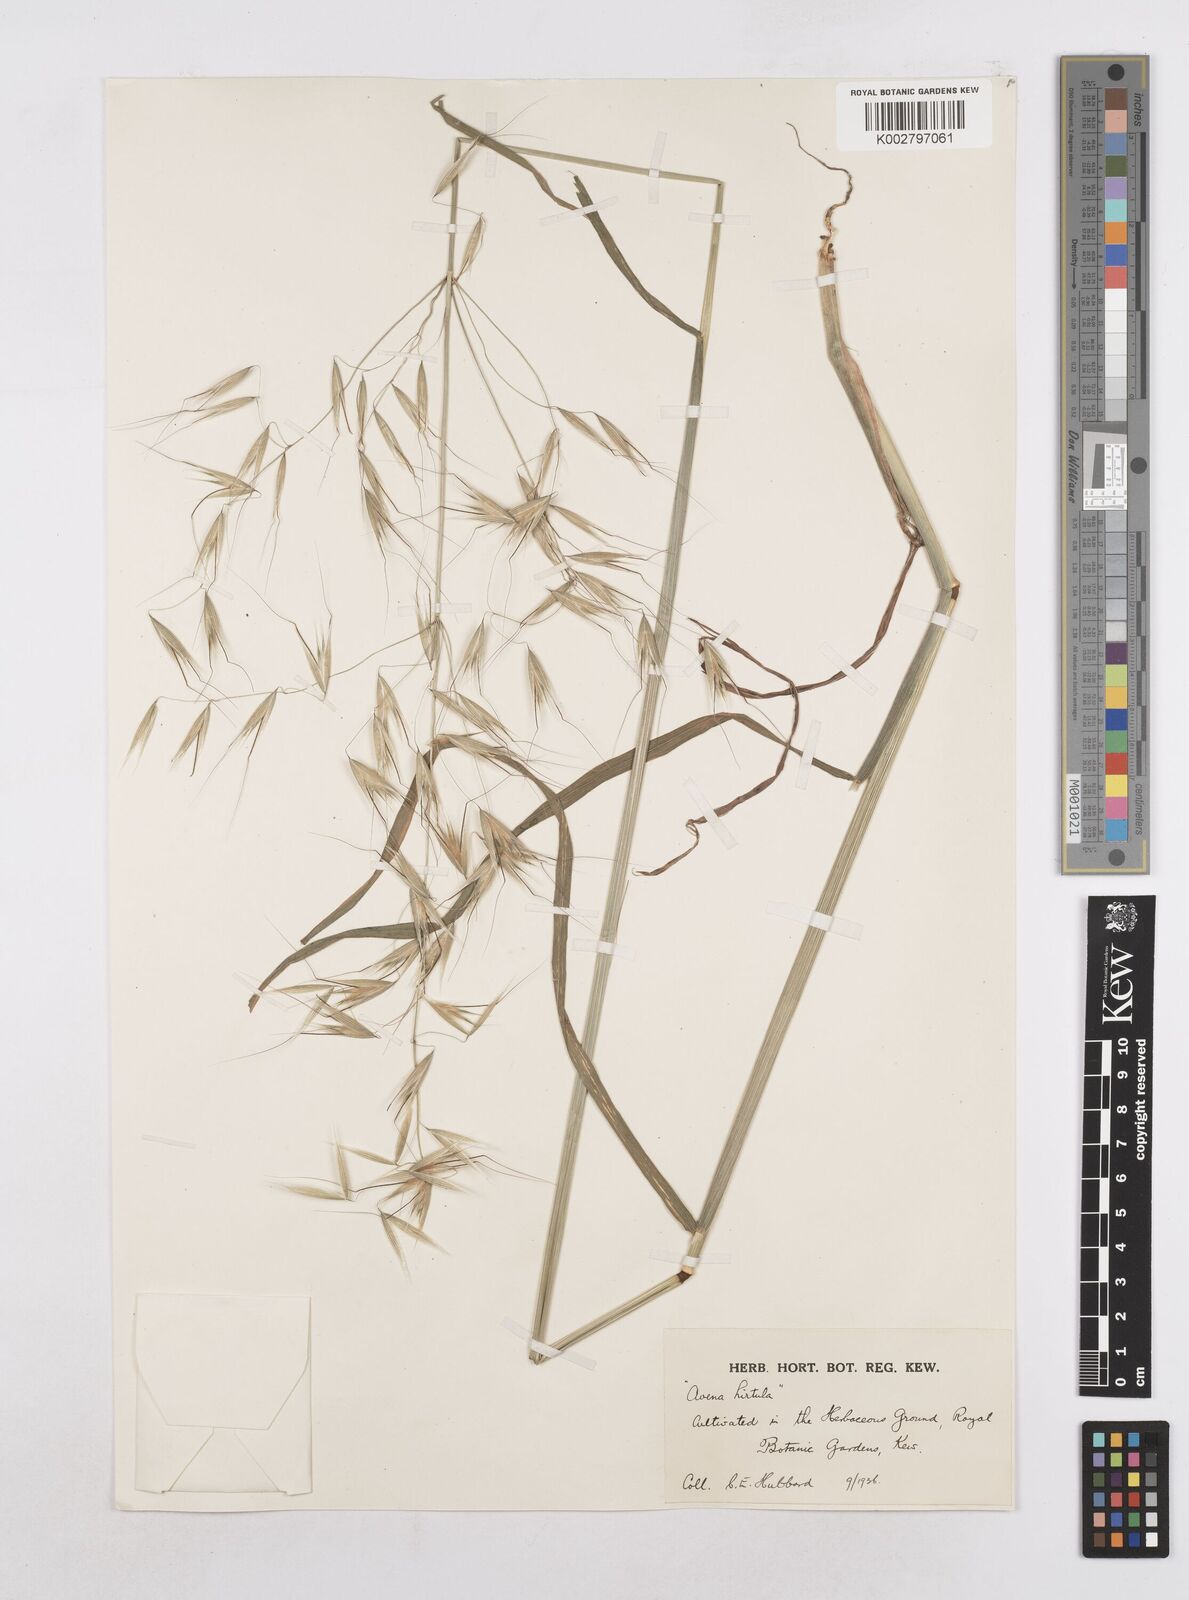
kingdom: Plantae
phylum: Tracheophyta
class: Liliopsida
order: Poales
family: Poaceae
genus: Avena
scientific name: Avena
